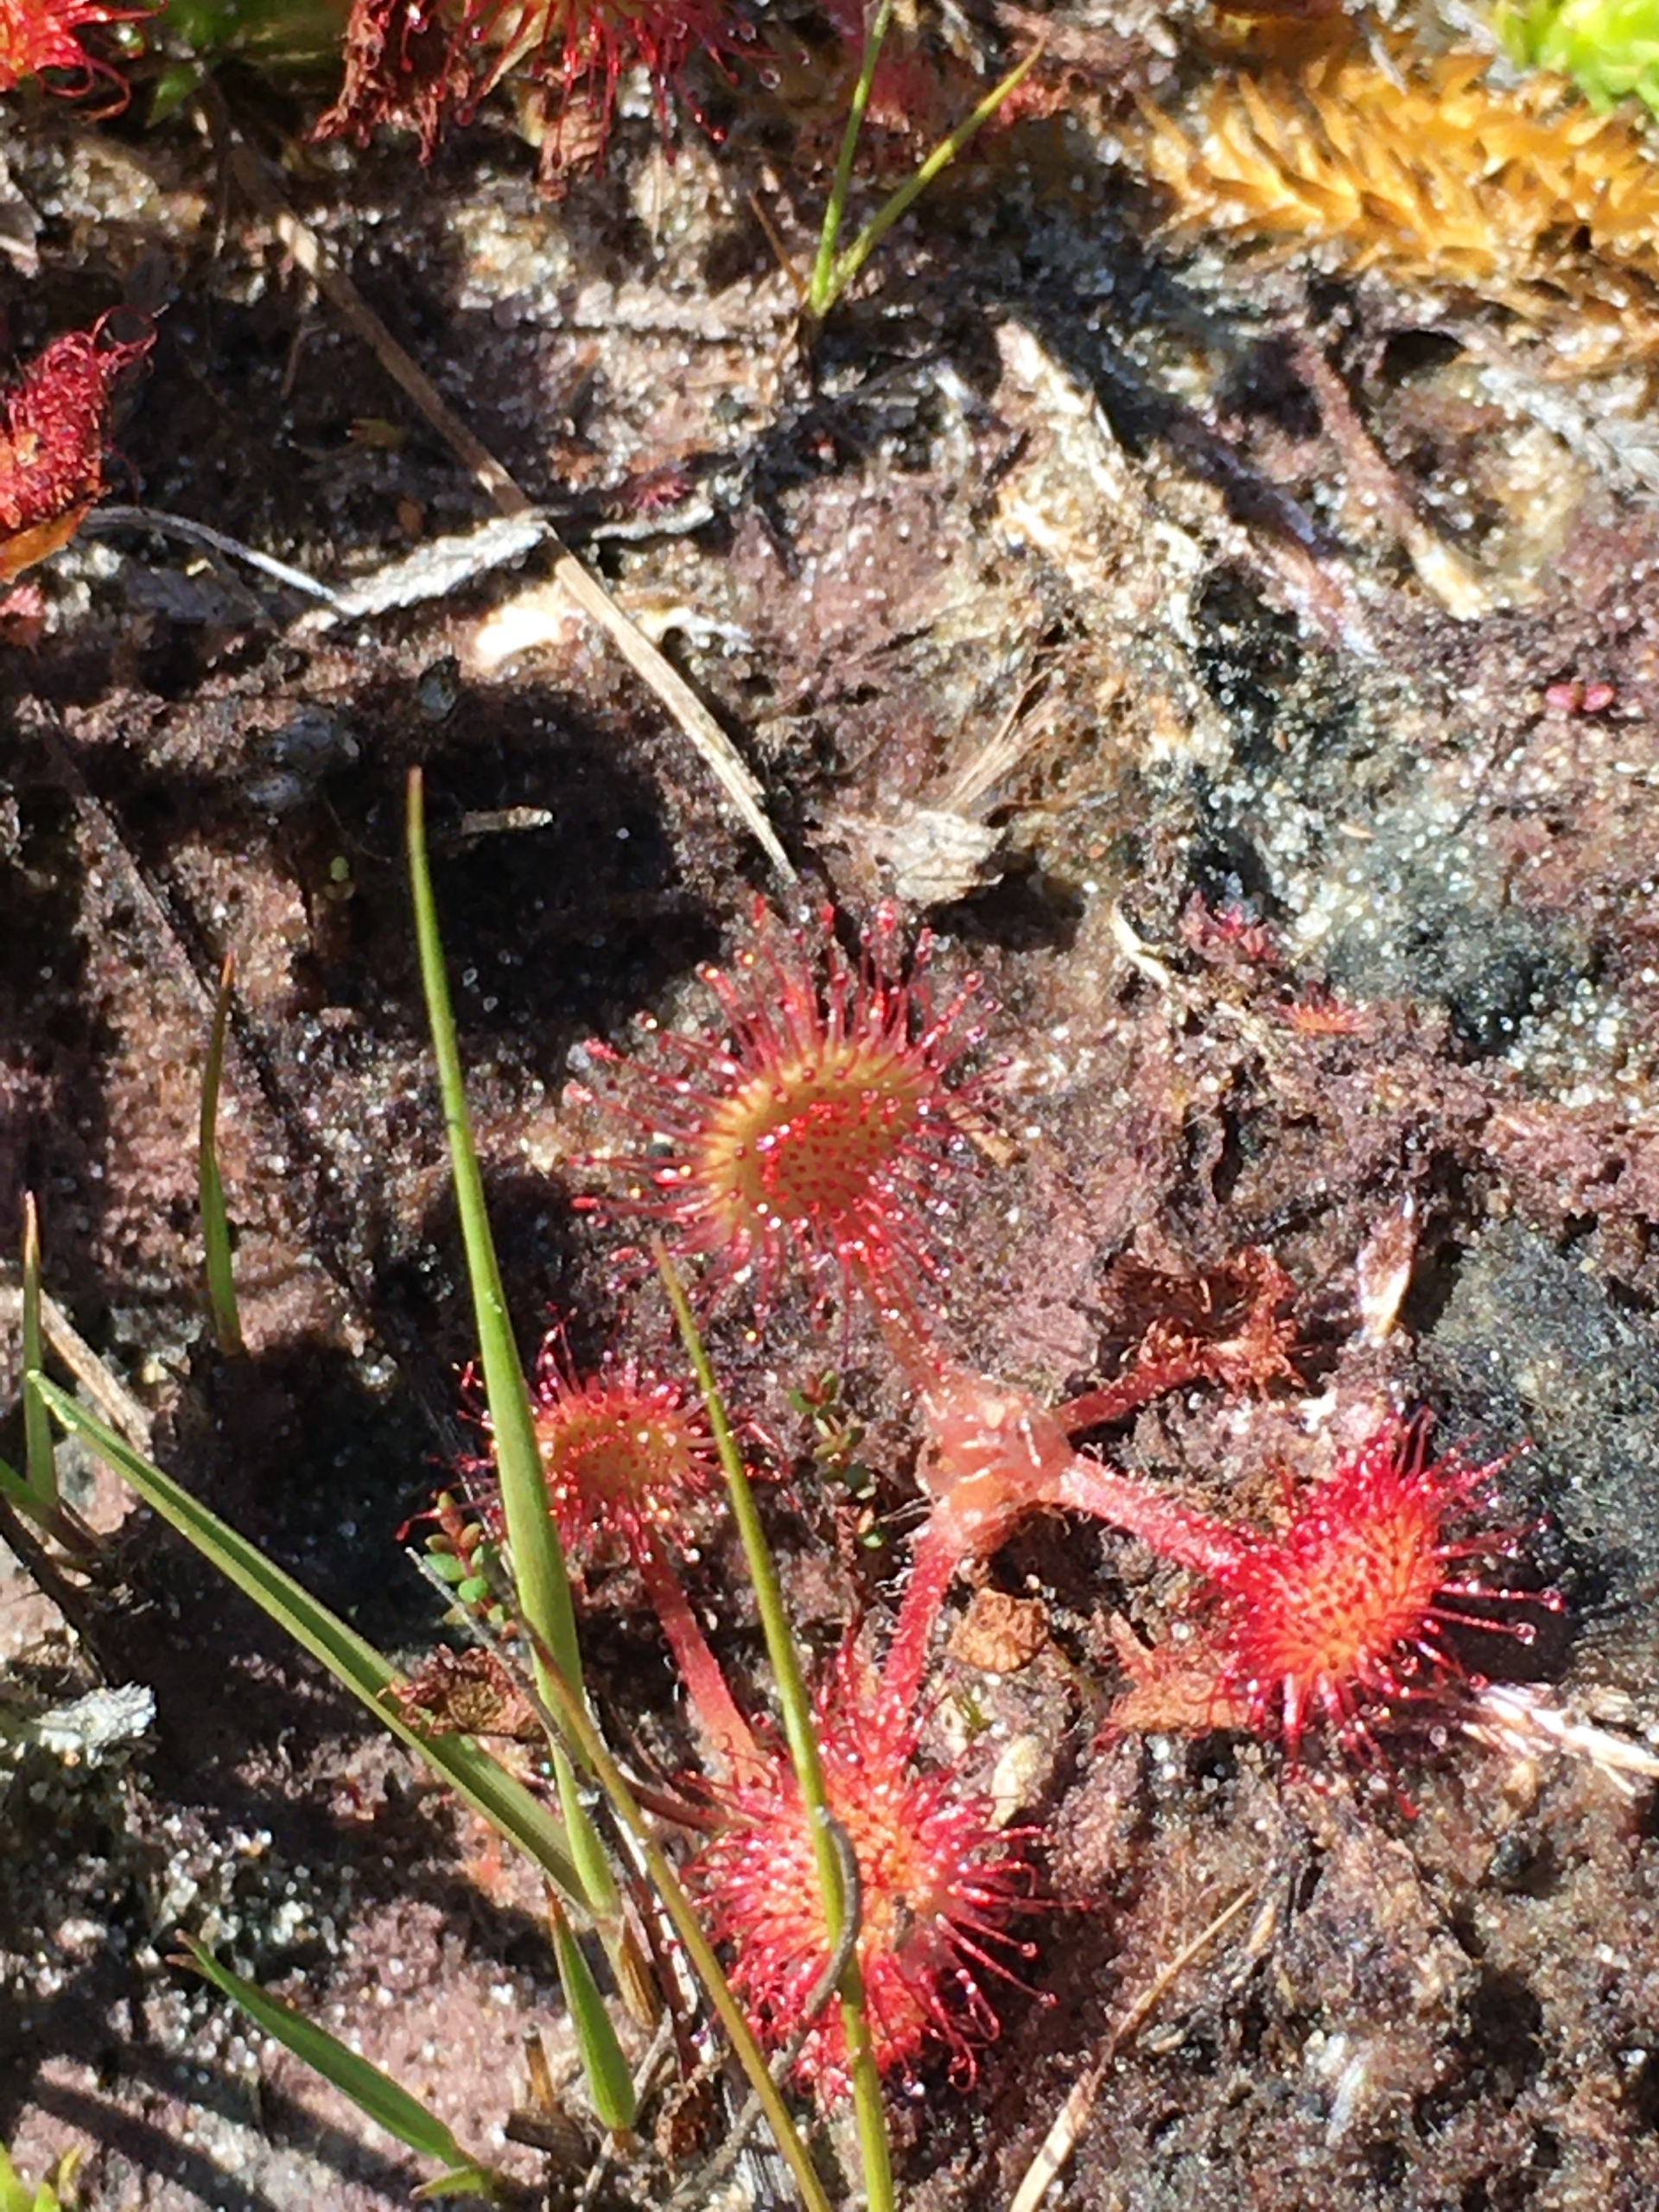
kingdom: Plantae
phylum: Tracheophyta
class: Magnoliopsida
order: Caryophyllales
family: Droseraceae
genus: Drosera
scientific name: Drosera rotundifolia
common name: Rundbladet soldug
